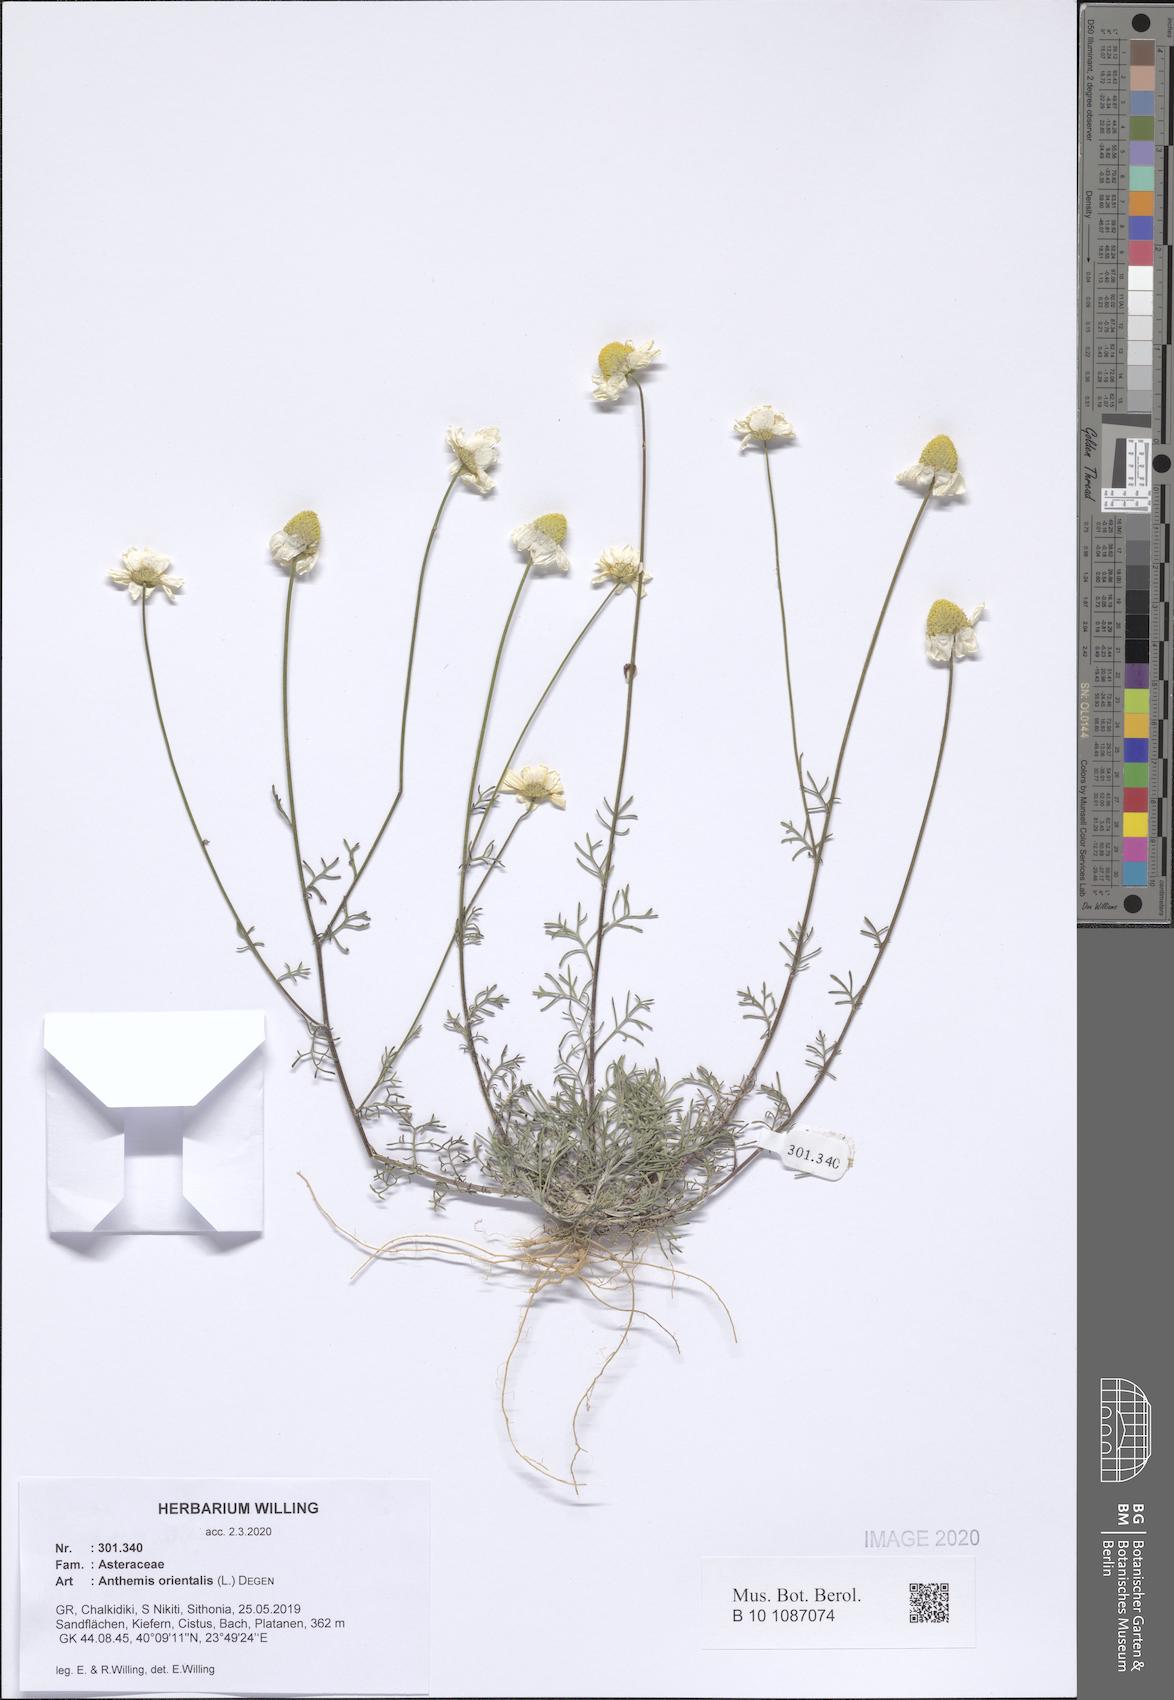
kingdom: Plantae
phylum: Tracheophyta
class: Magnoliopsida
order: Asterales
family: Asteraceae
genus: Anthemis
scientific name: Anthemis orientalis
